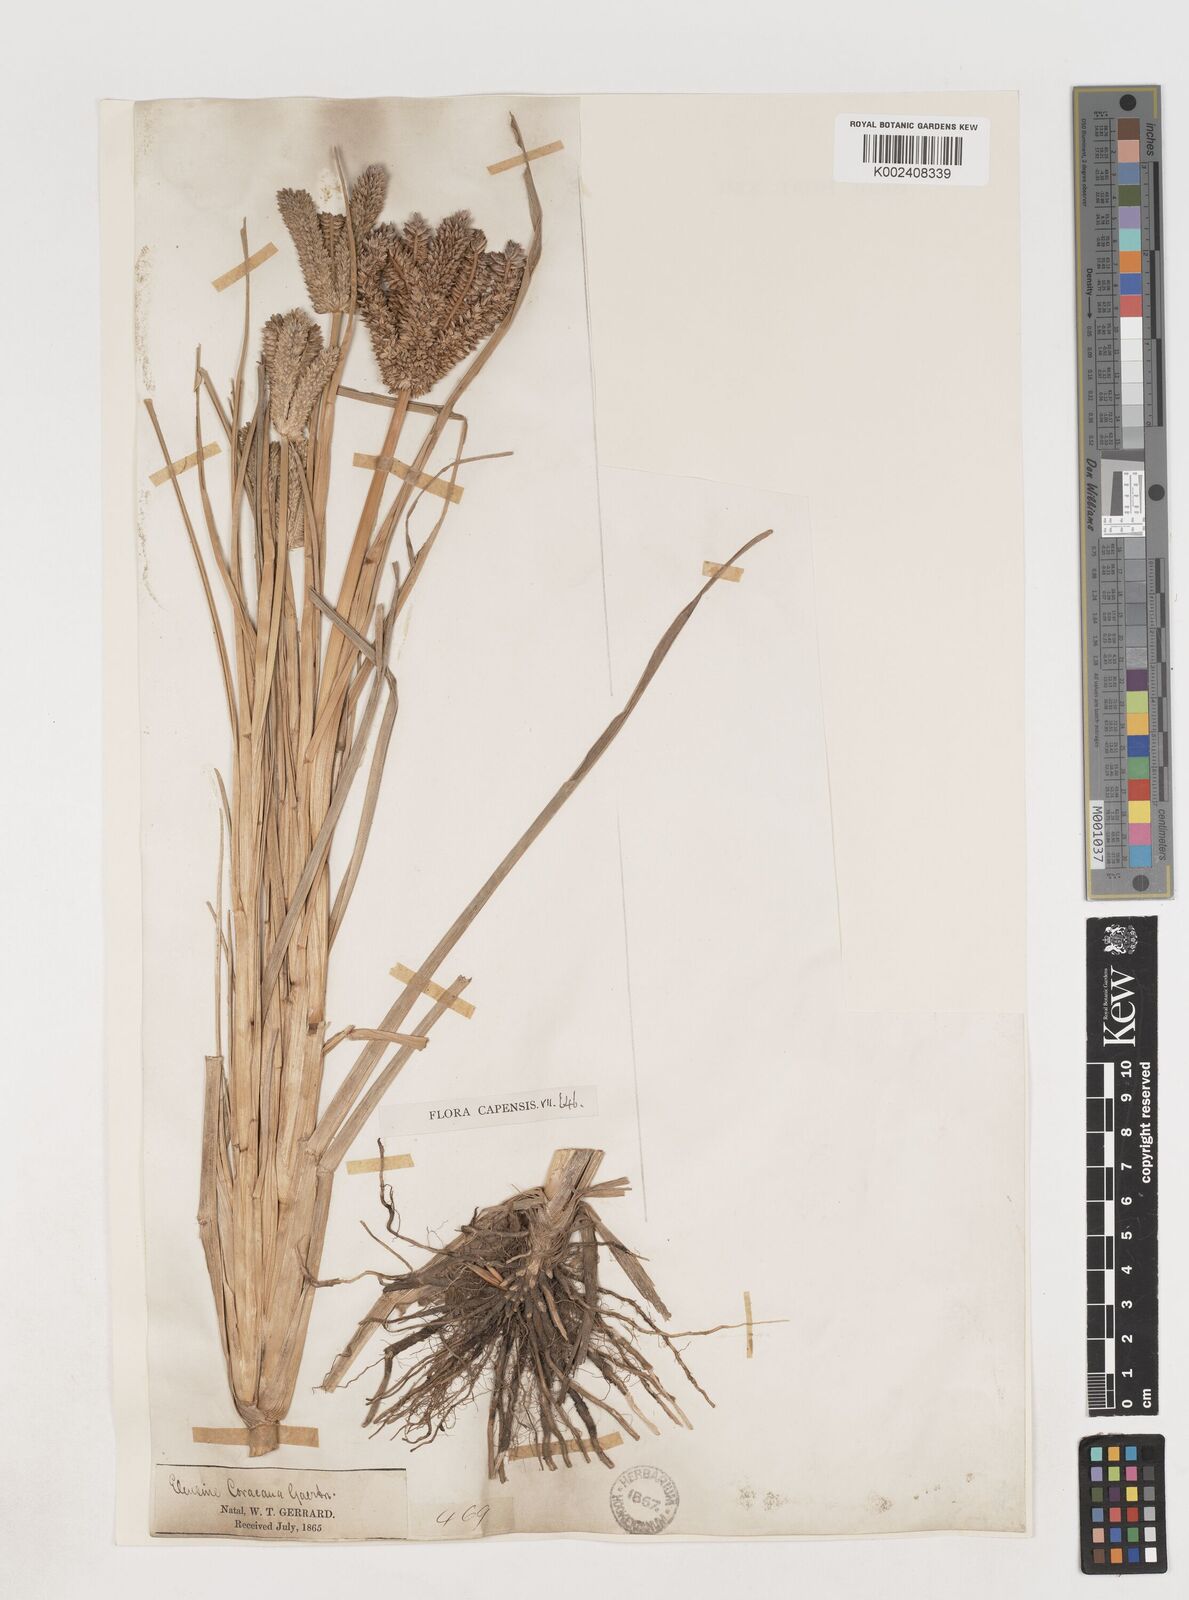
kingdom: Plantae
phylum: Tracheophyta
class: Liliopsida
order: Poales
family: Poaceae
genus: Eleusine
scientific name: Eleusine coracana
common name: Finger millet
